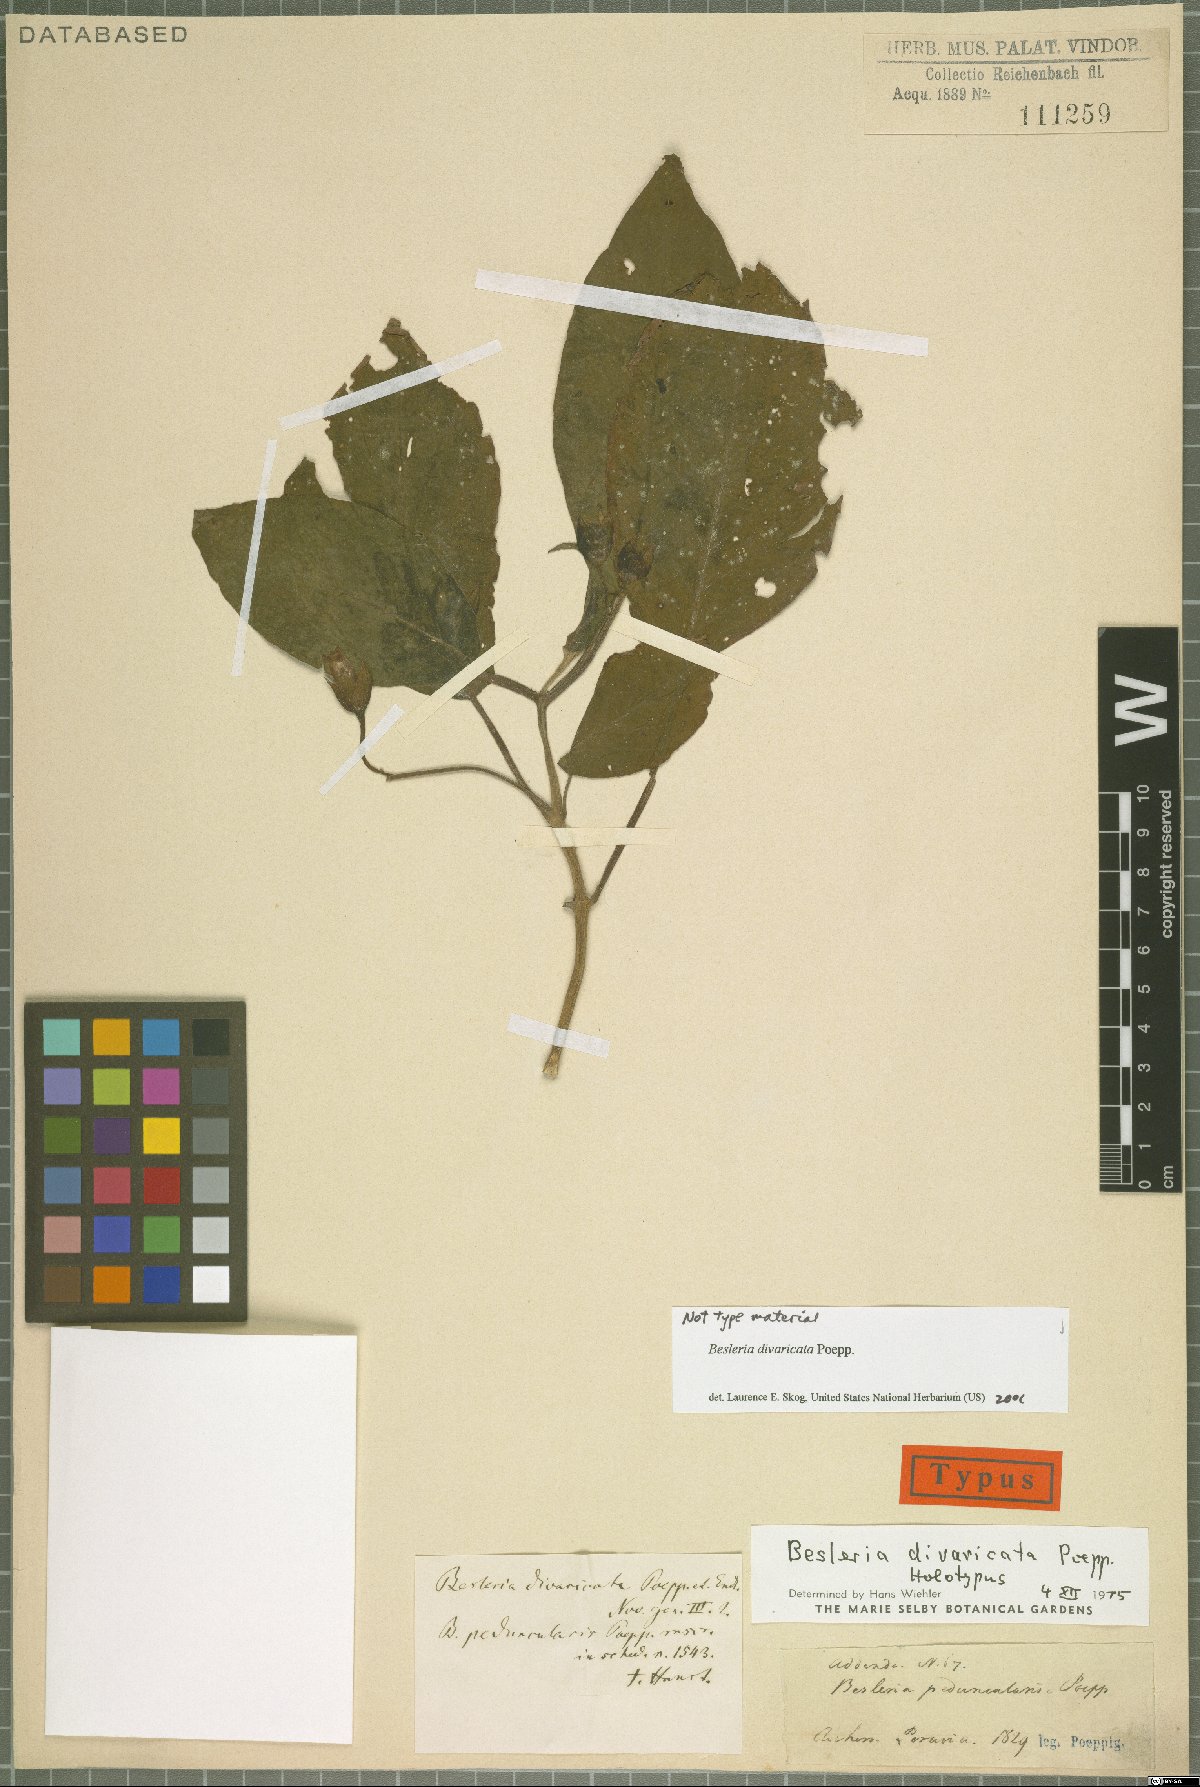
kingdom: Plantae
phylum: Tracheophyta
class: Magnoliopsida
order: Lamiales
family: Gesneriaceae
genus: Besleria
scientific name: Besleria divaricata
